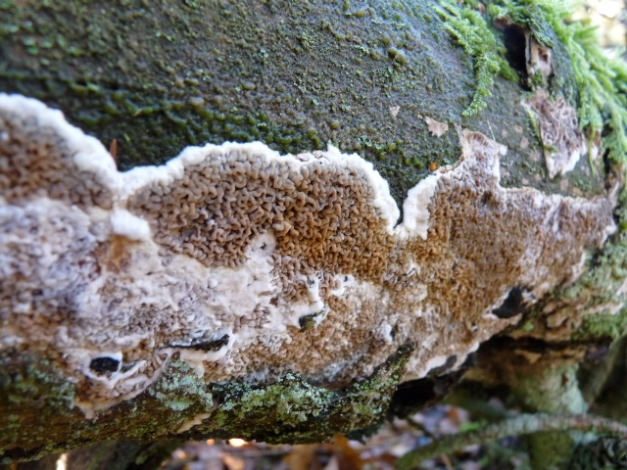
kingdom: Fungi
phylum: Basidiomycota
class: Agaricomycetes
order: Boletales
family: Serpulaceae
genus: Serpula
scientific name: Serpula himantioides
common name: tyndkødet hussvamp
